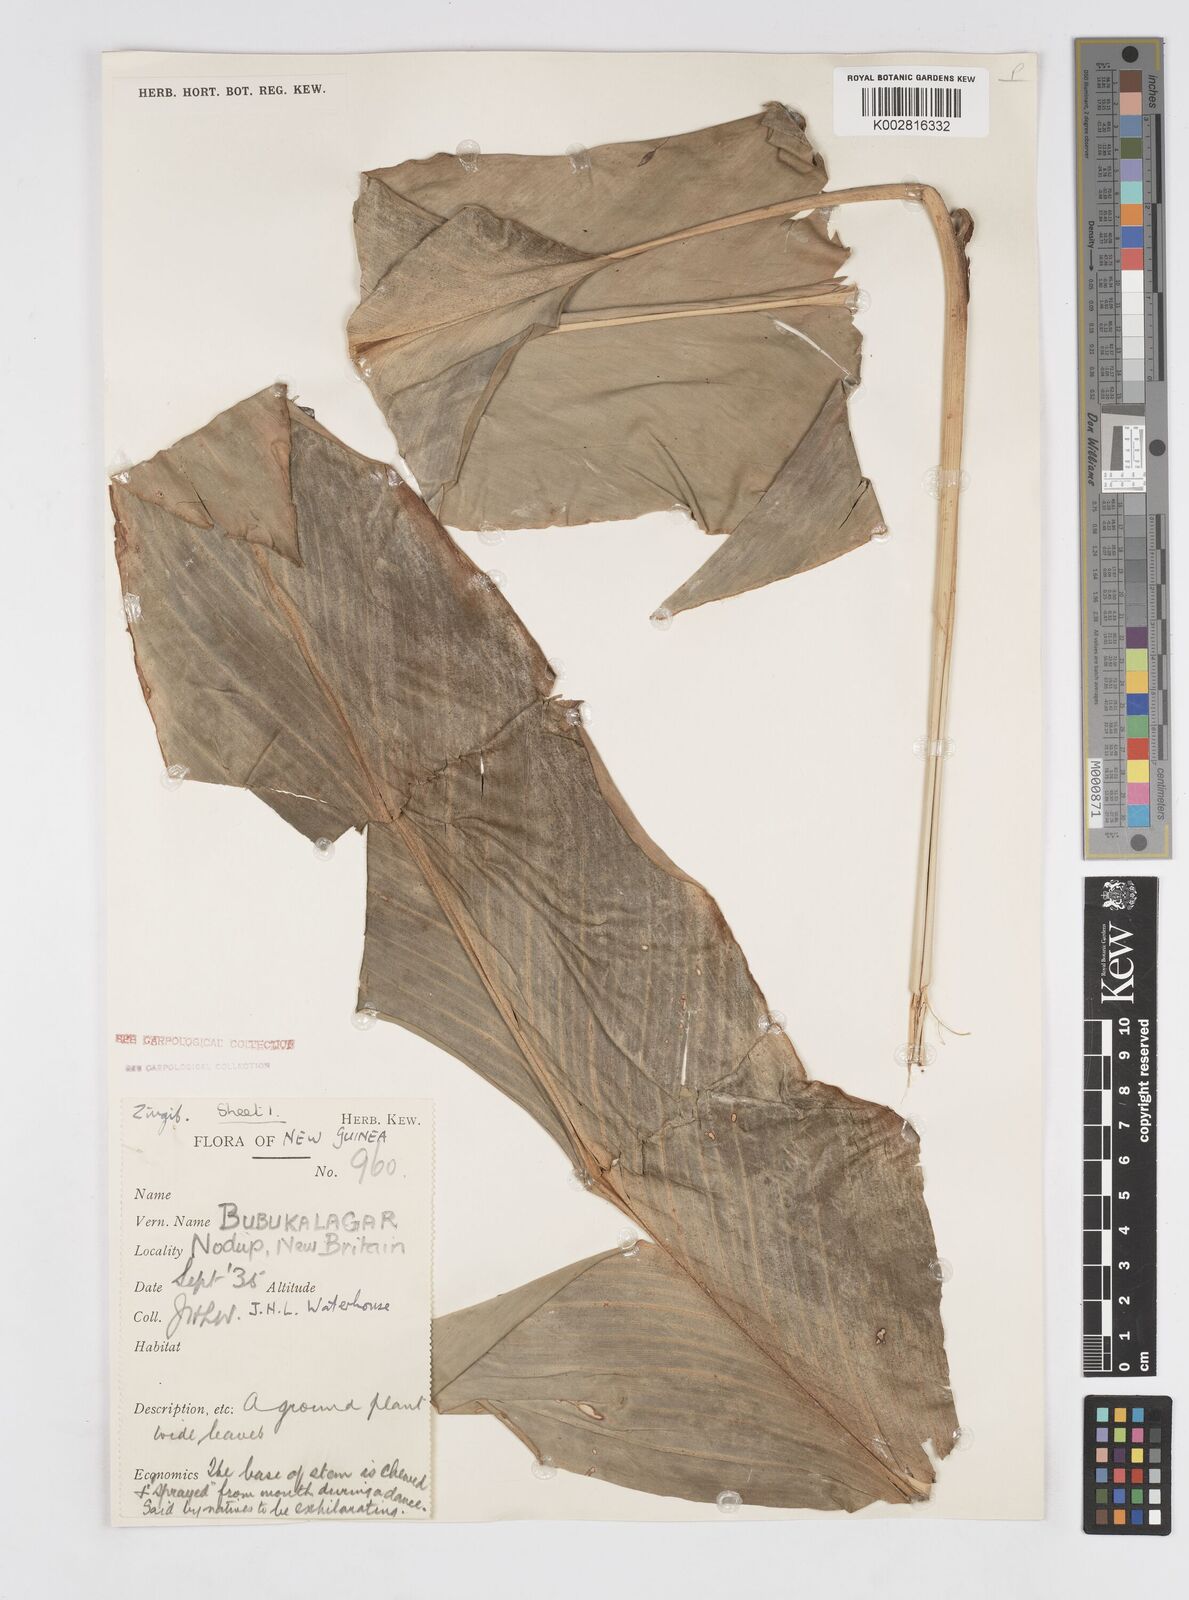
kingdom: Plantae
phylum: Tracheophyta
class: Liliopsida
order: Zingiberales
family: Zingiberaceae
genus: Alpinia
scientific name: Alpinia novae-pommeraniae
